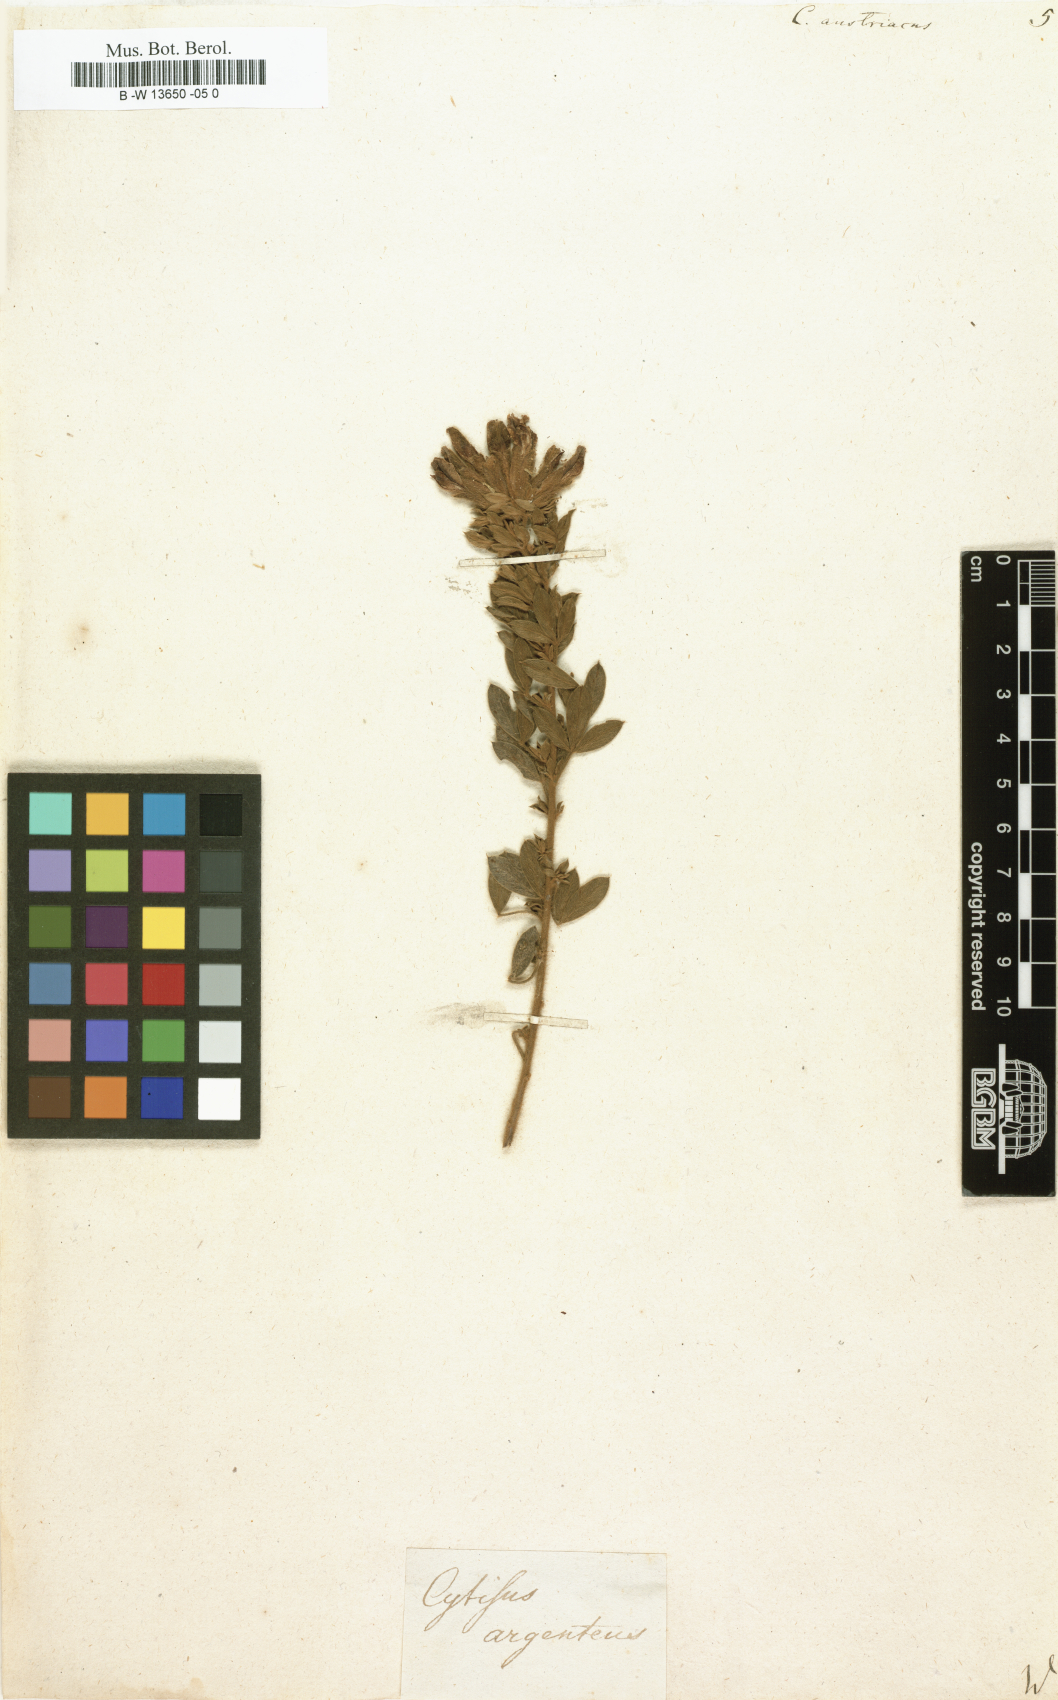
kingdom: Plantae
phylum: Tracheophyta
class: Magnoliopsida
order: Fabales
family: Fabaceae
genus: Chamaecytisus
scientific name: Chamaecytisus austriacus
